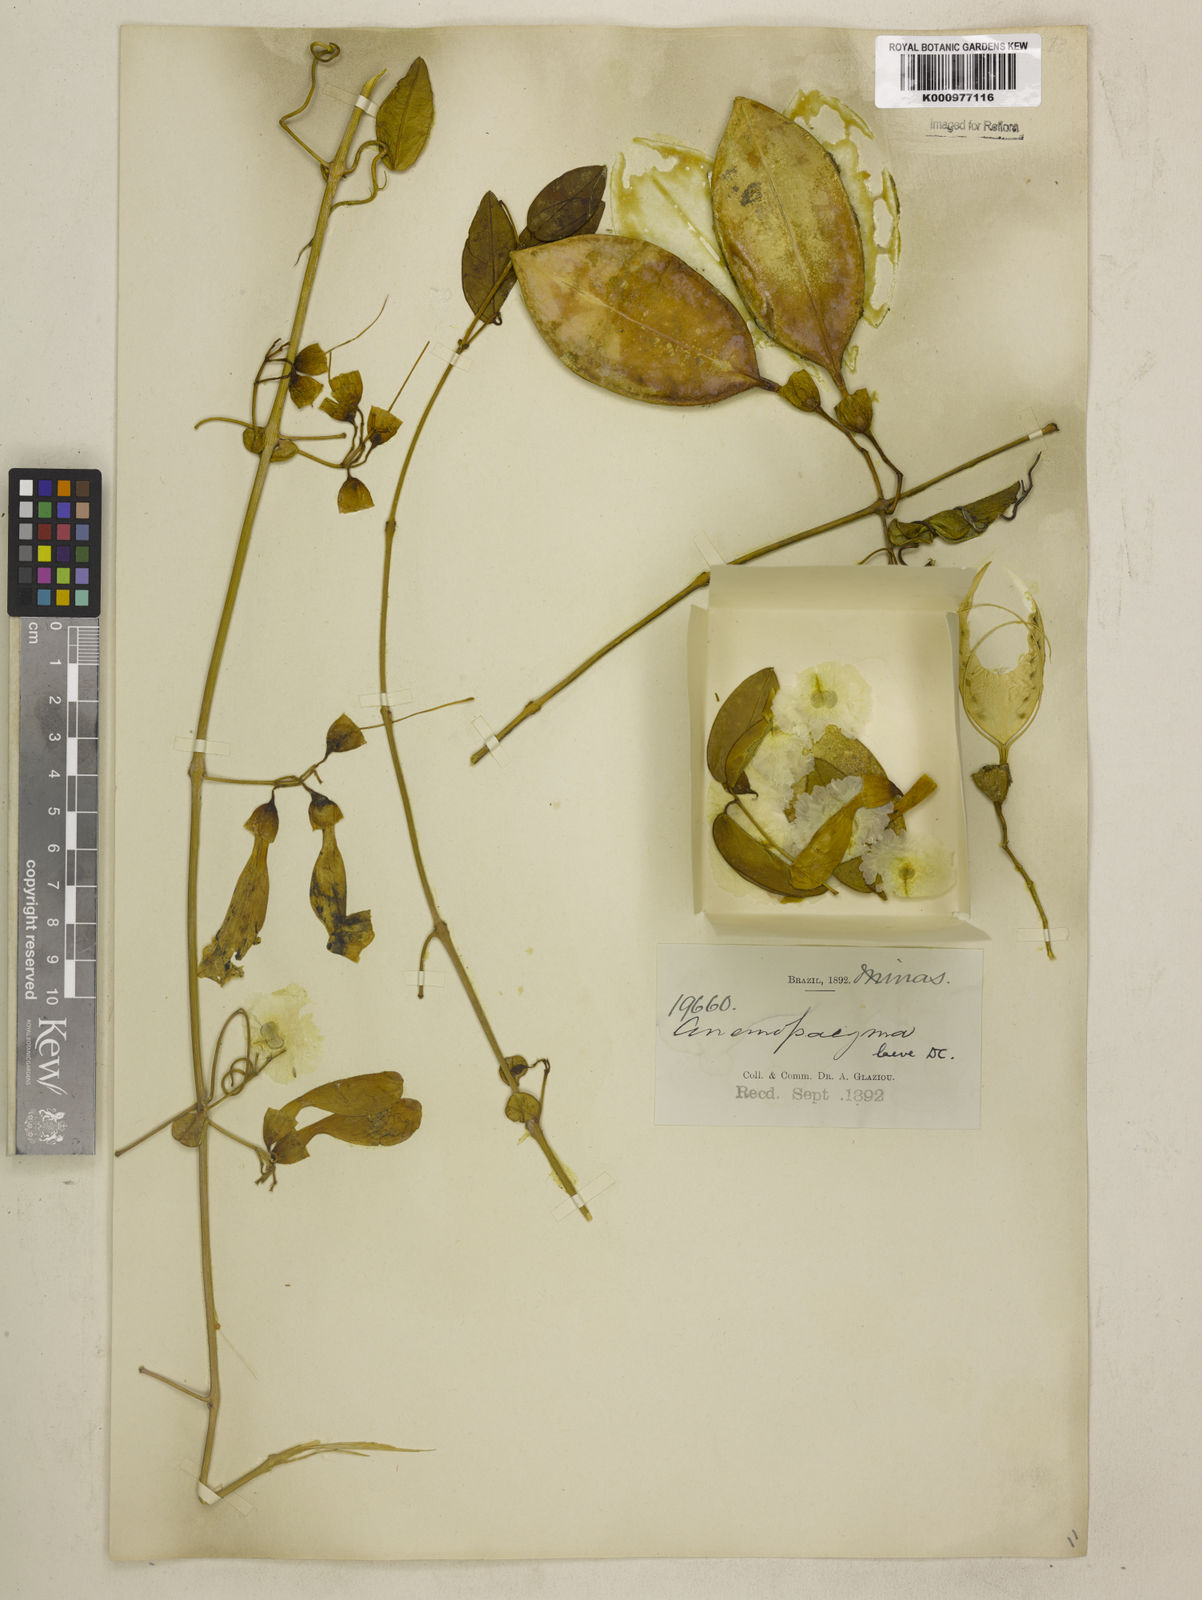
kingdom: Plantae
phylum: Tracheophyta
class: Magnoliopsida
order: Lamiales
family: Bignoniaceae
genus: Anemopaegma
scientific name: Anemopaegma laeve
